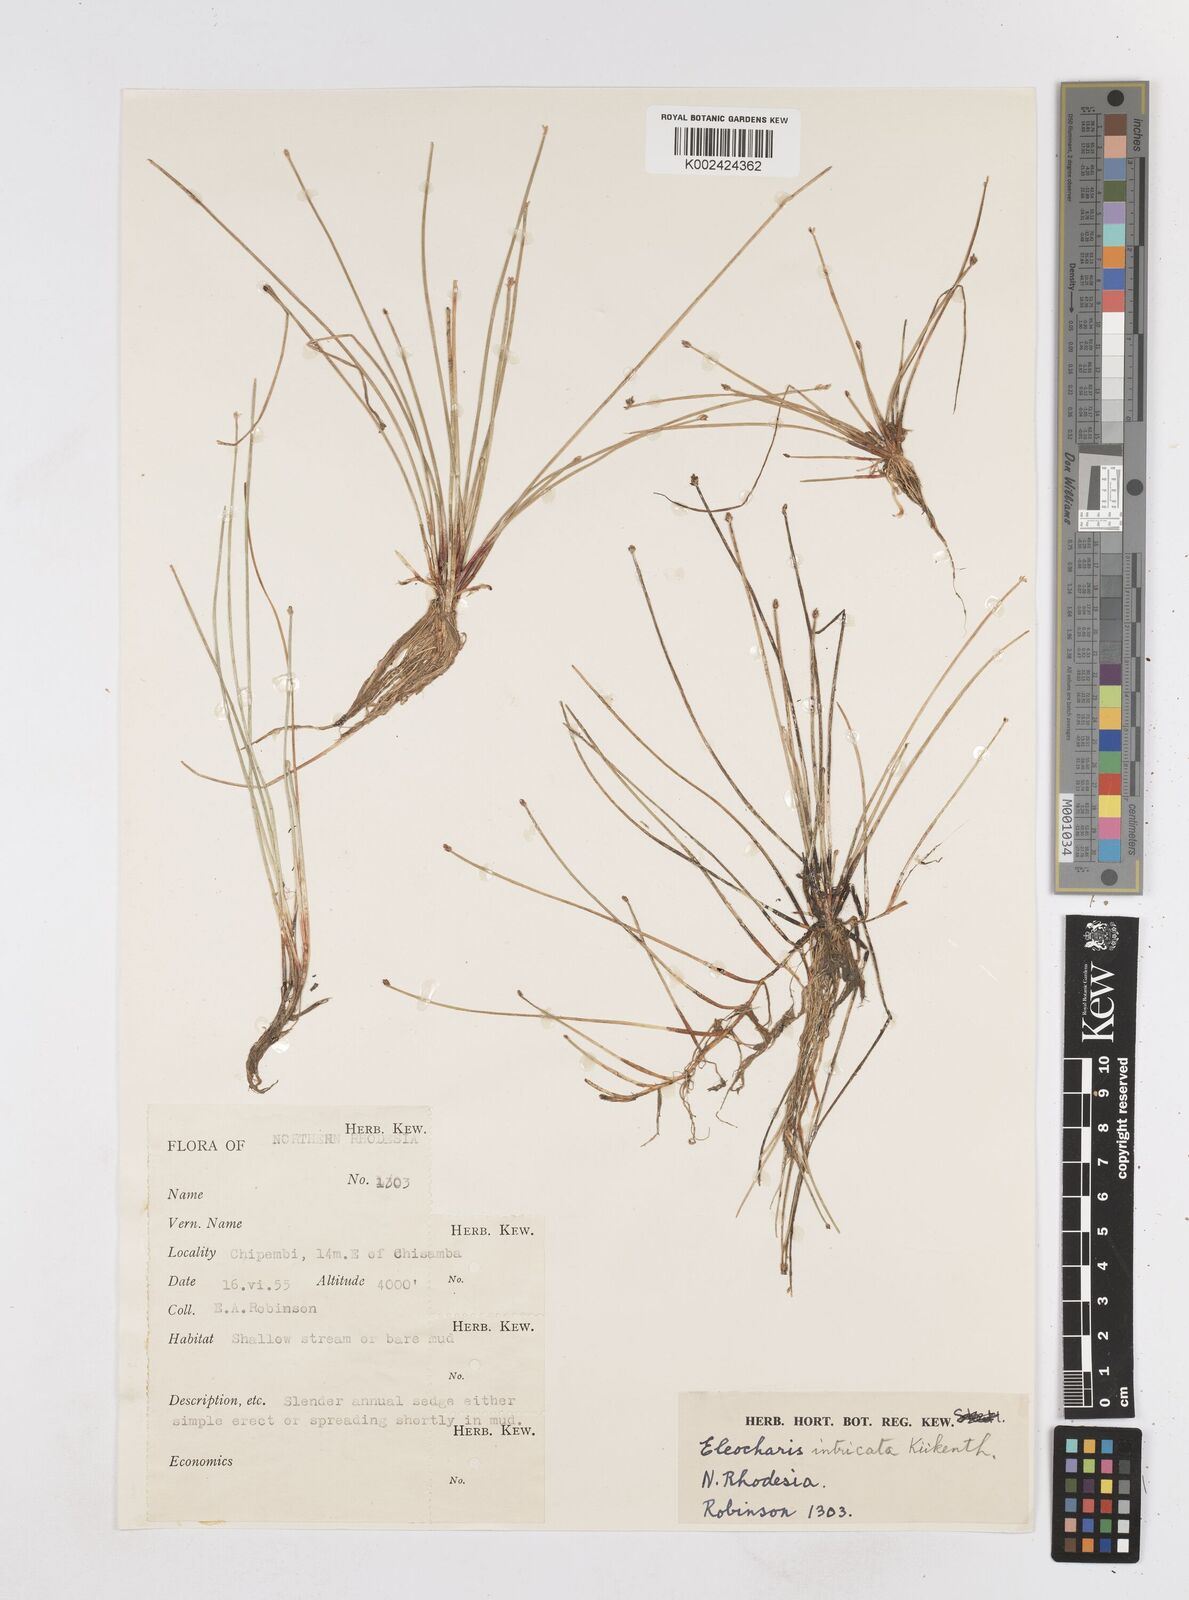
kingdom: Plantae
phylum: Tracheophyta
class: Liliopsida
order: Poales
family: Cyperaceae
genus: Eleocharis
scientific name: Eleocharis caduca
